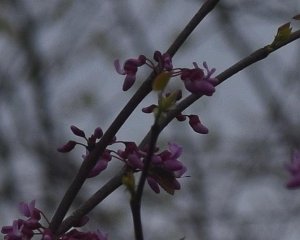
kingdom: Animalia
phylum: Arthropoda
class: Insecta
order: Lepidoptera
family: Lycaenidae
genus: Incisalia
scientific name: Incisalia henrici
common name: Henry's Elfin
